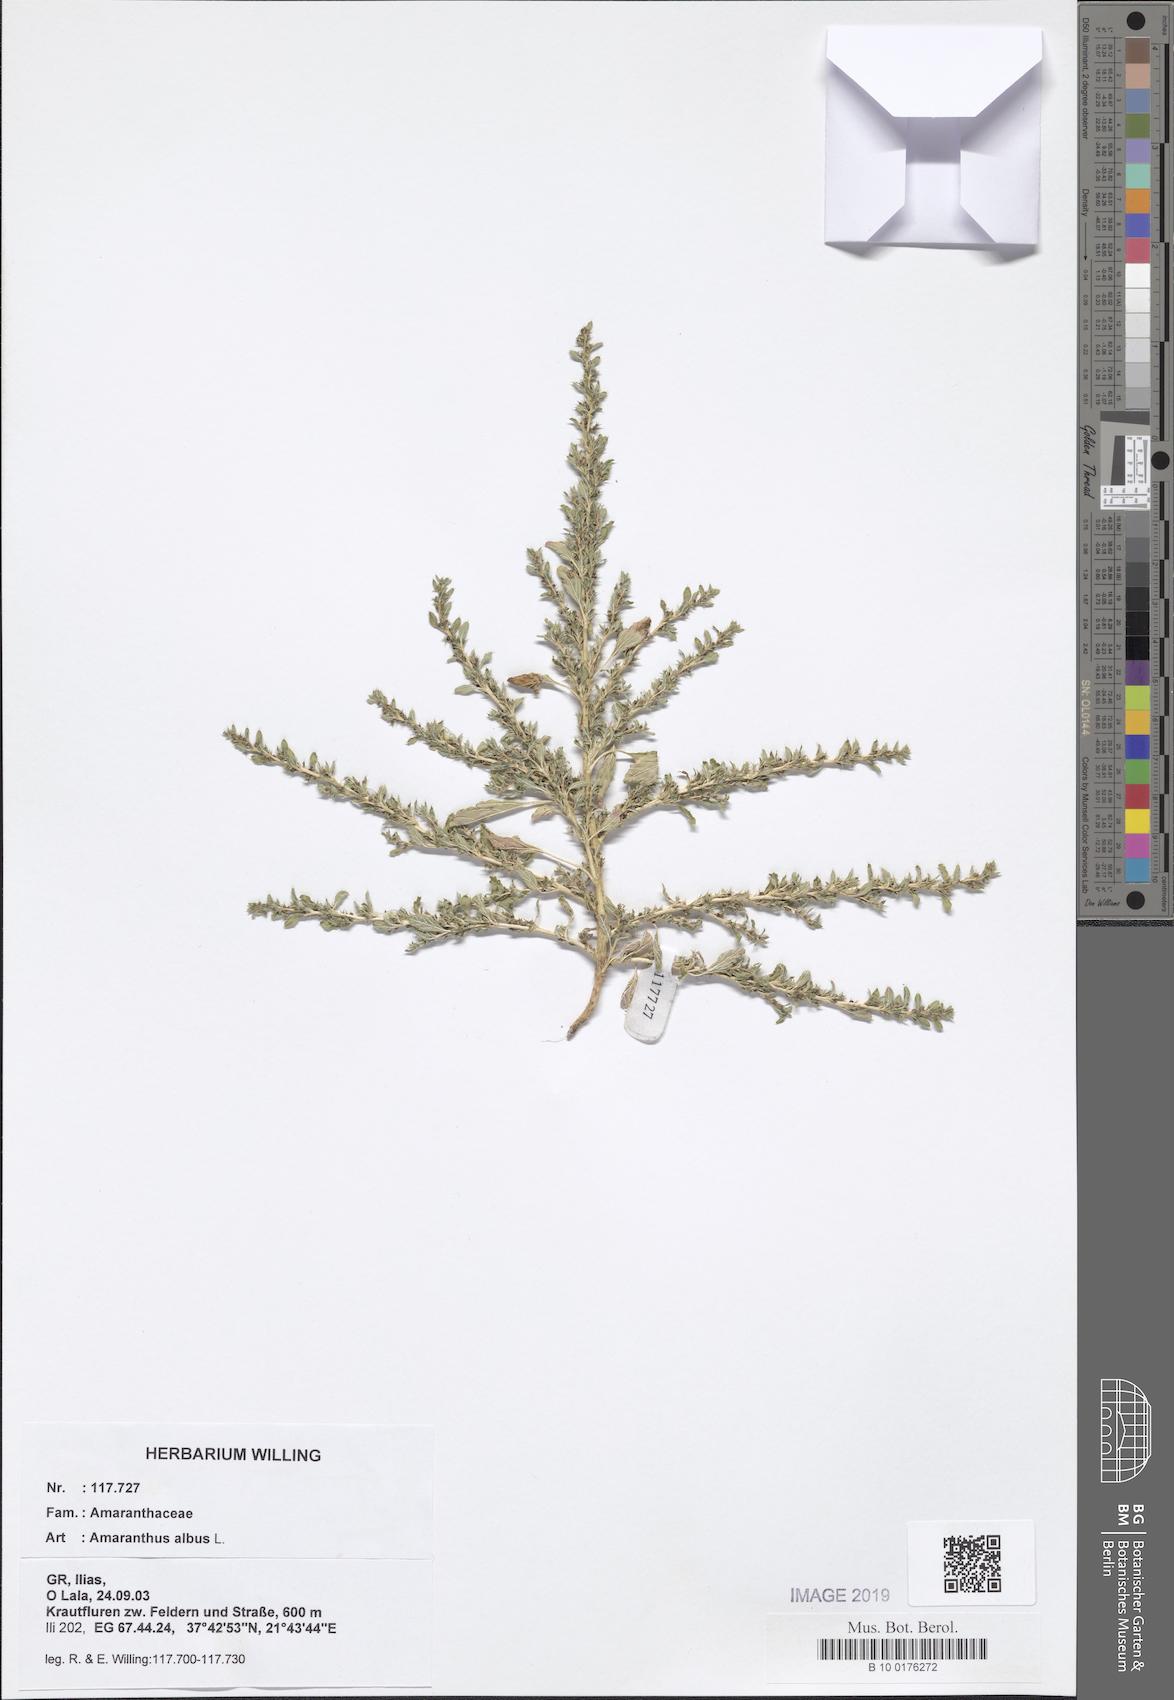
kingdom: Plantae
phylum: Tracheophyta
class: Magnoliopsida
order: Caryophyllales
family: Amaranthaceae
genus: Amaranthus
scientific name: Amaranthus albus
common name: White pigweed
